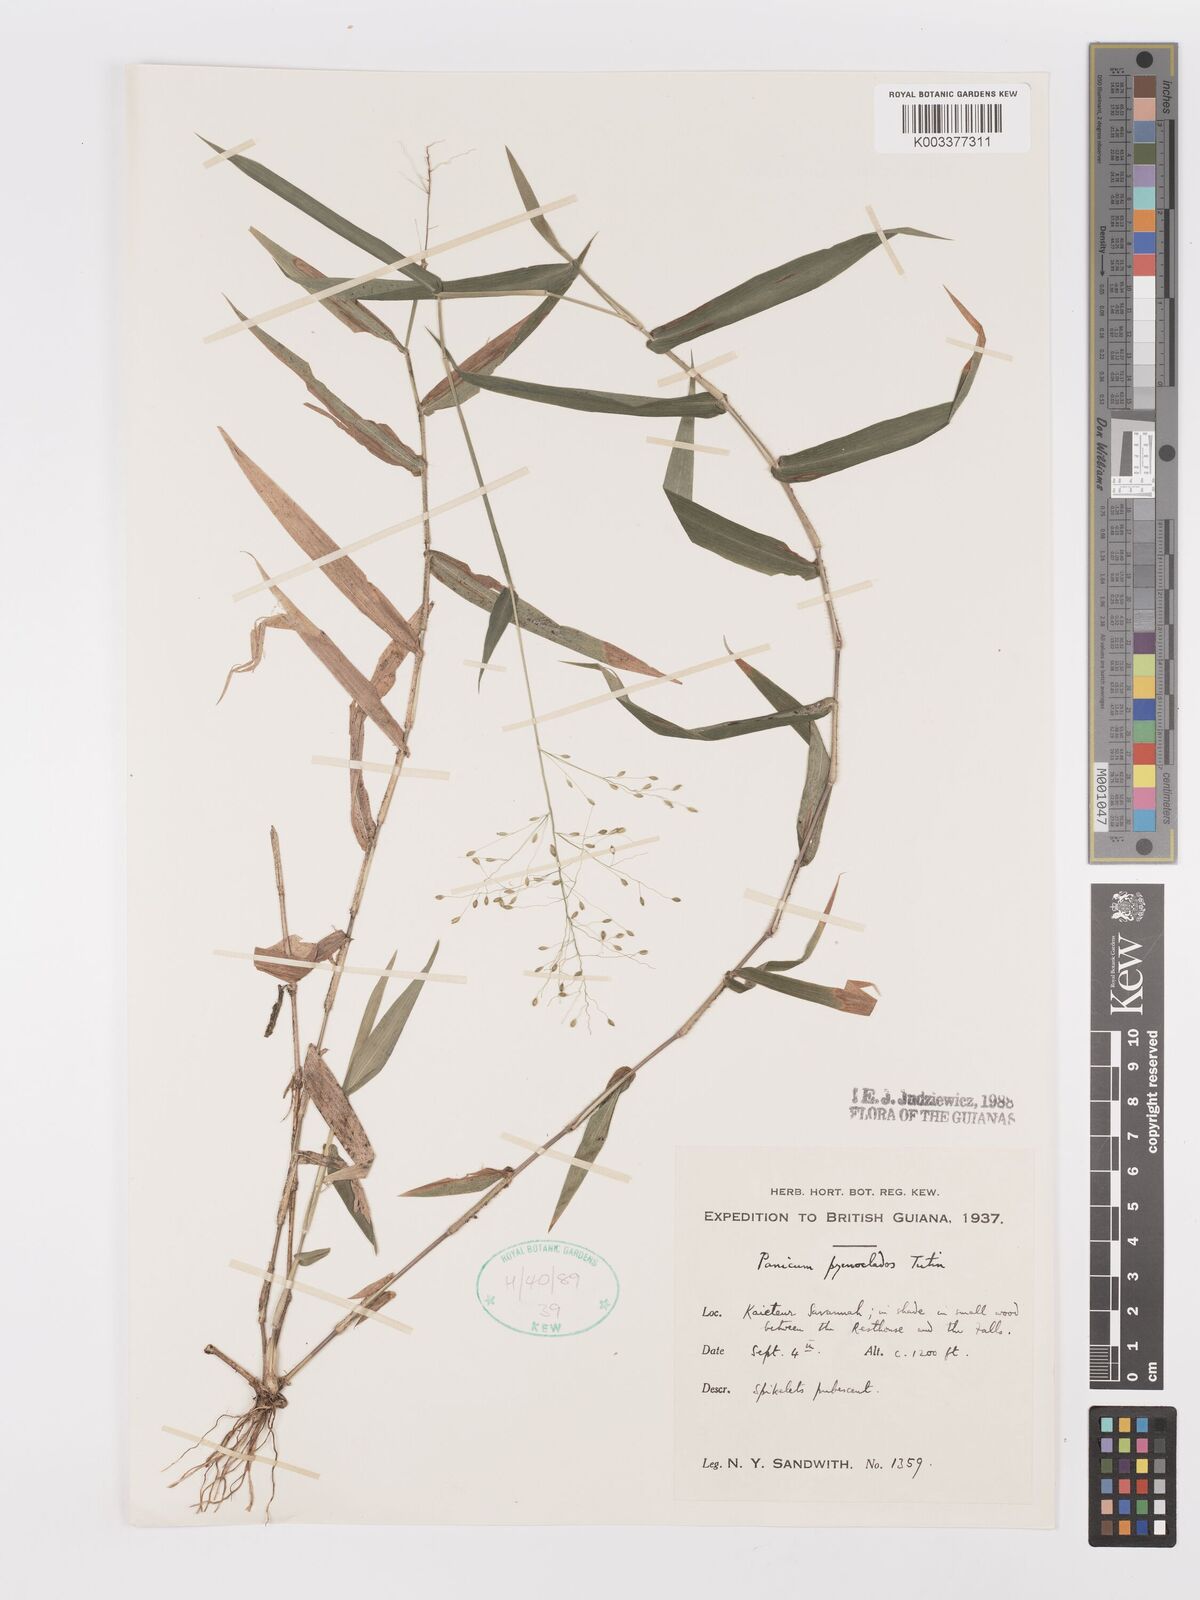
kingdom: Plantae
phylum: Tracheophyta
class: Liliopsida
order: Poales
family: Poaceae
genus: Dichanthelium
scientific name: Dichanthelium pycnoclados
